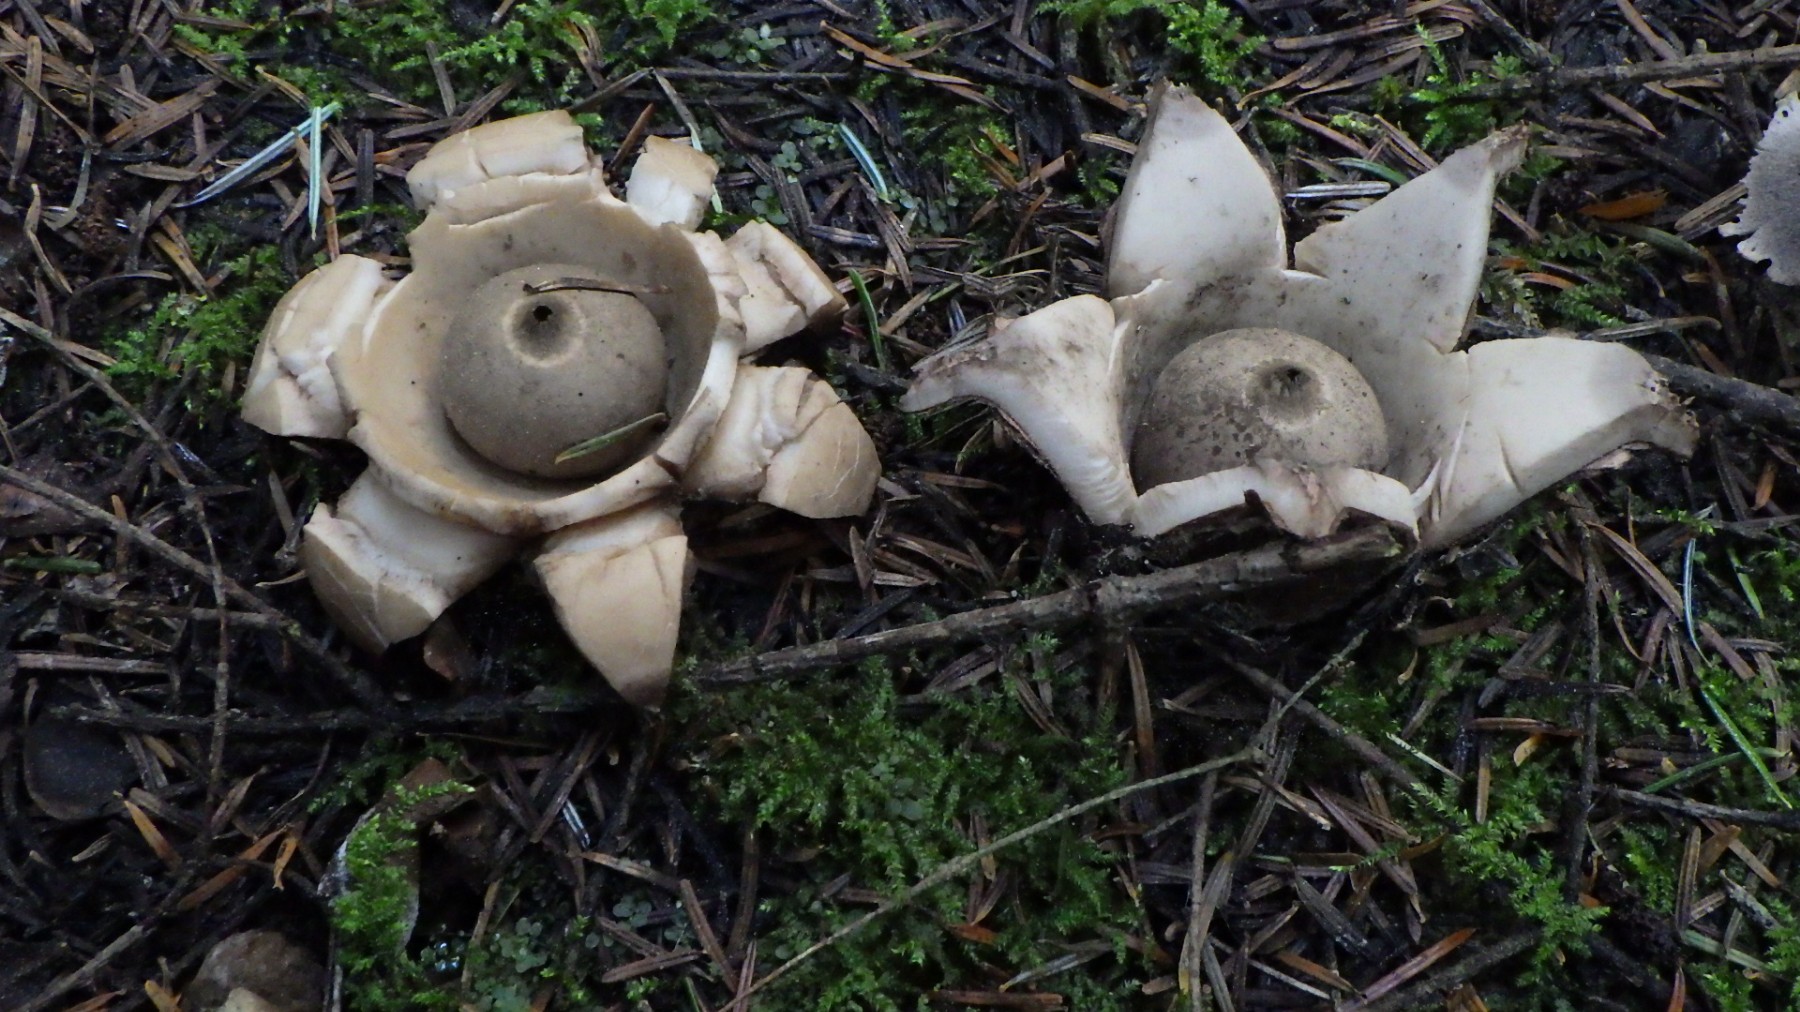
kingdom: Fungi
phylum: Basidiomycota
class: Agaricomycetes
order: Geastrales
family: Geastraceae
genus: Geastrum
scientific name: Geastrum michelianum
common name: kødet stjernebold
